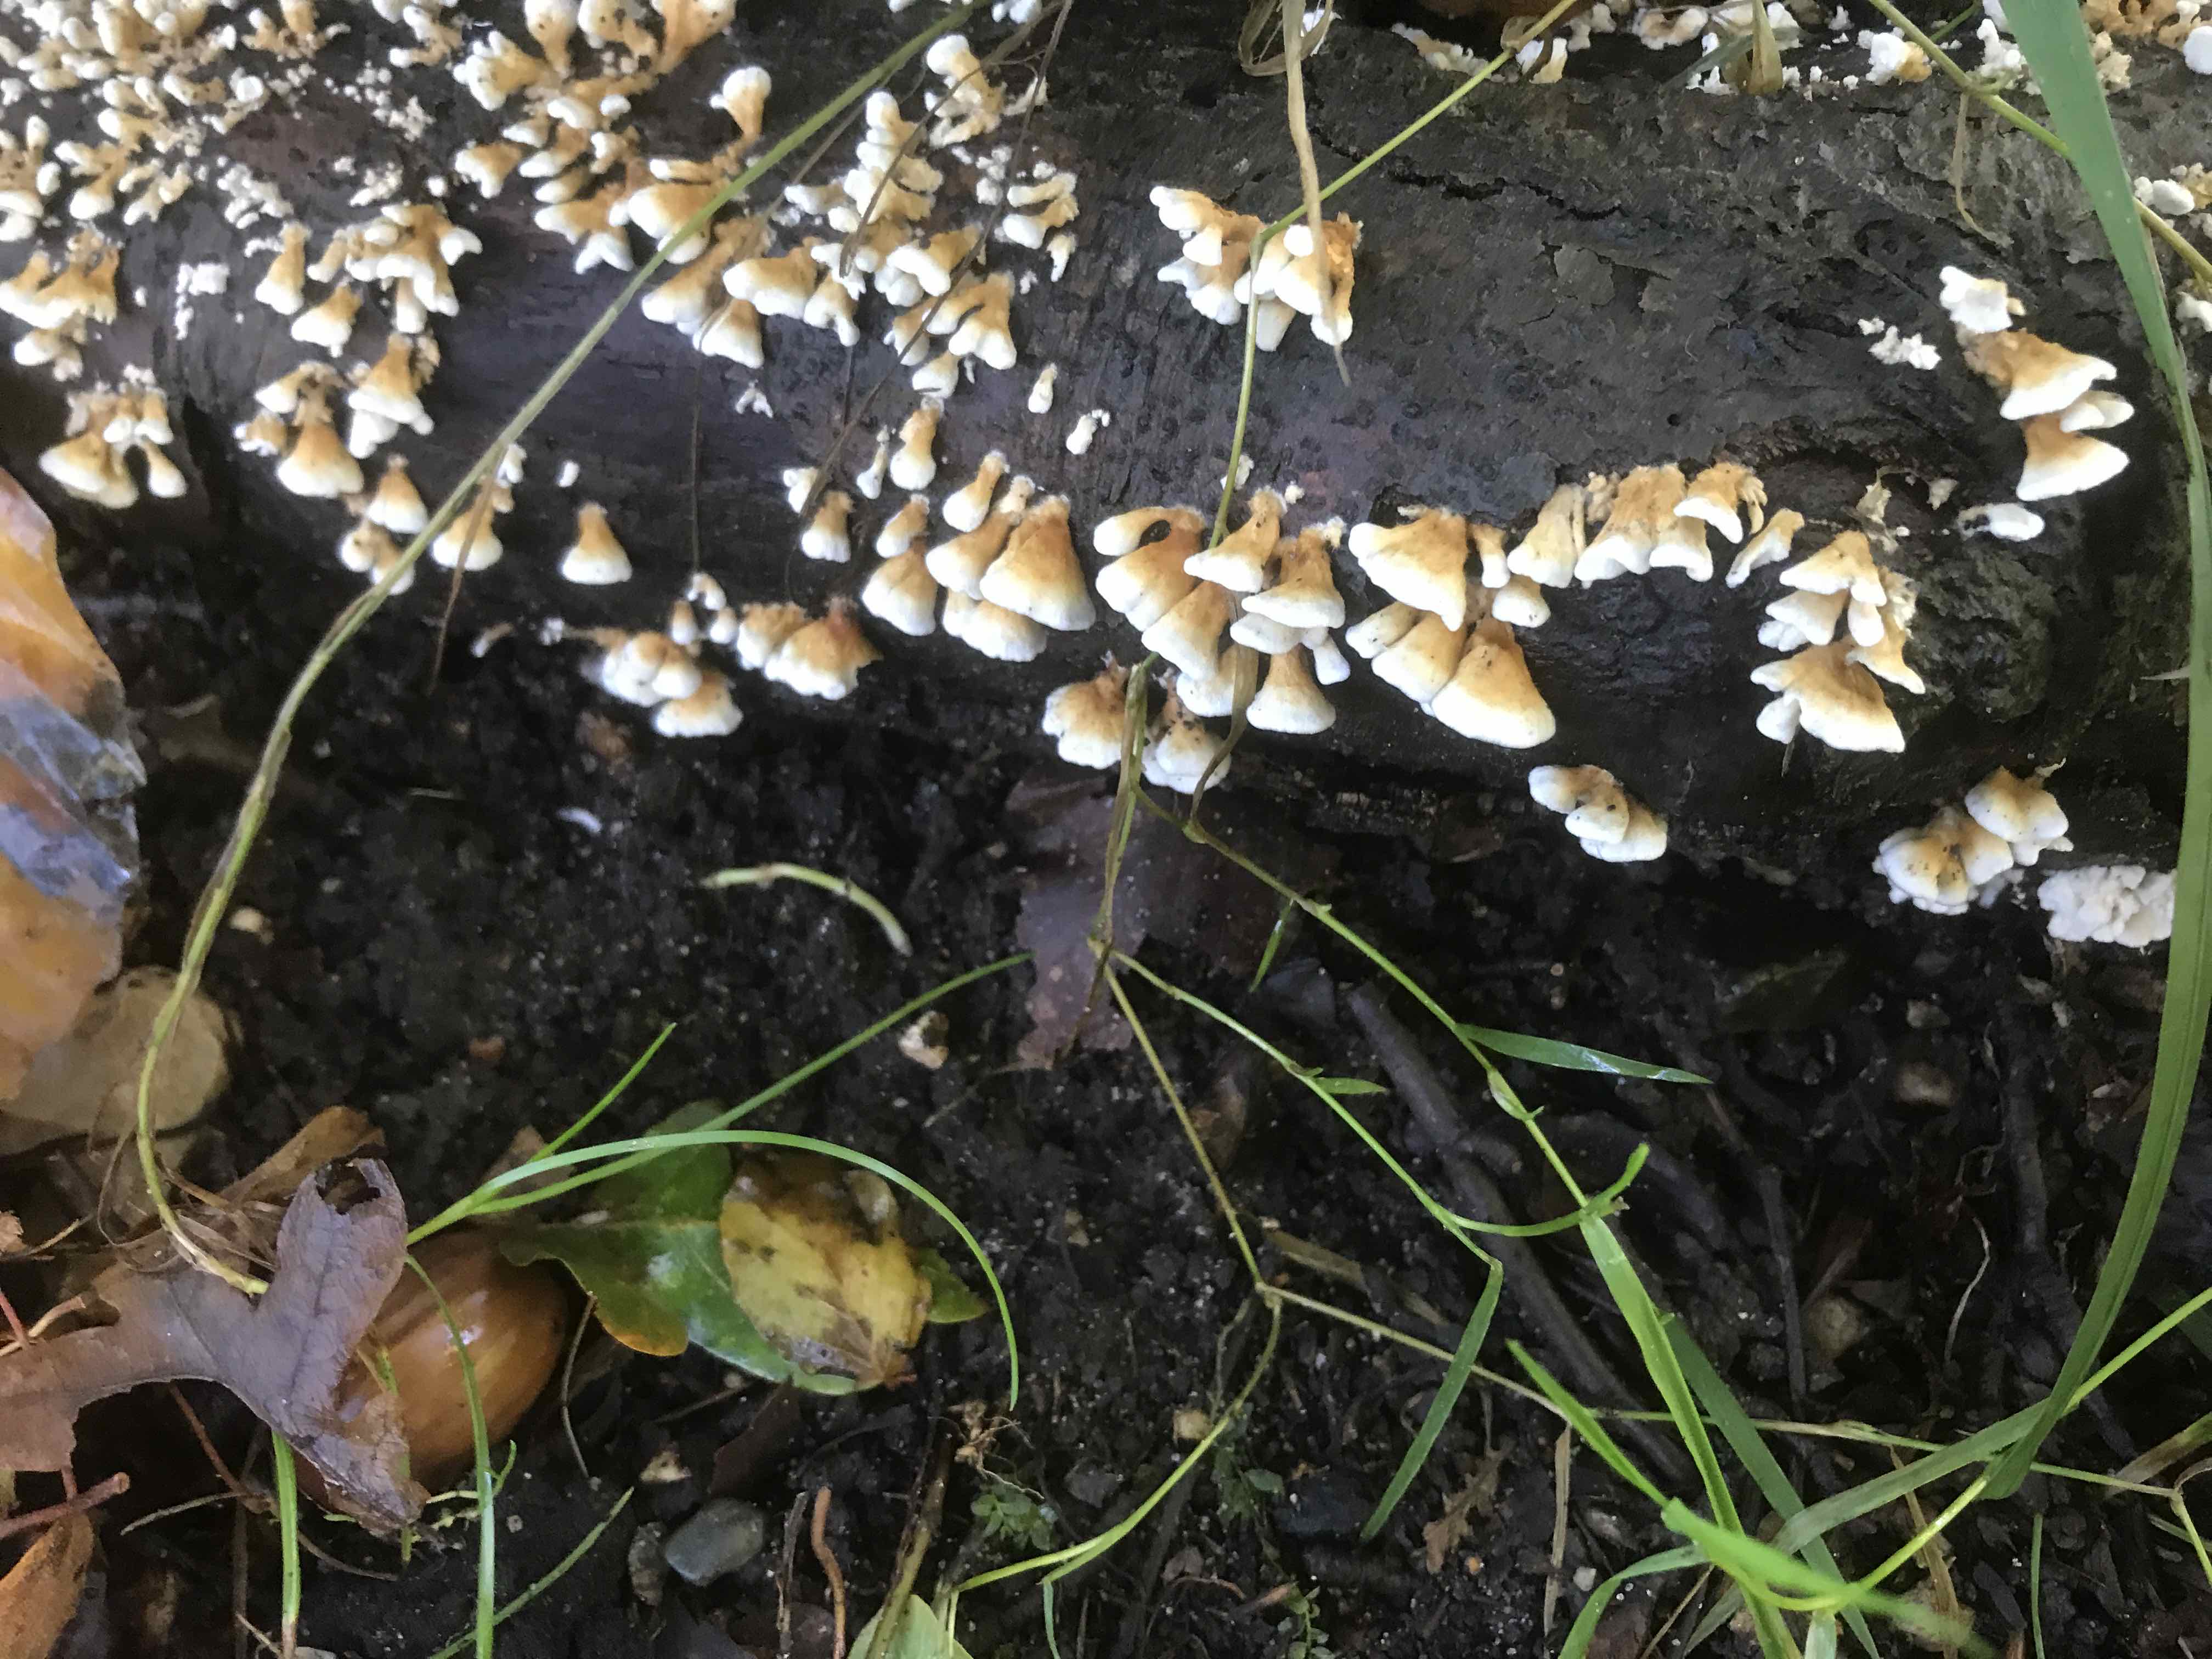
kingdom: Fungi
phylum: Basidiomycota
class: Agaricomycetes
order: Amylocorticiales
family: Amylocorticiaceae
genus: Plicaturopsis
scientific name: Plicaturopsis crispa
